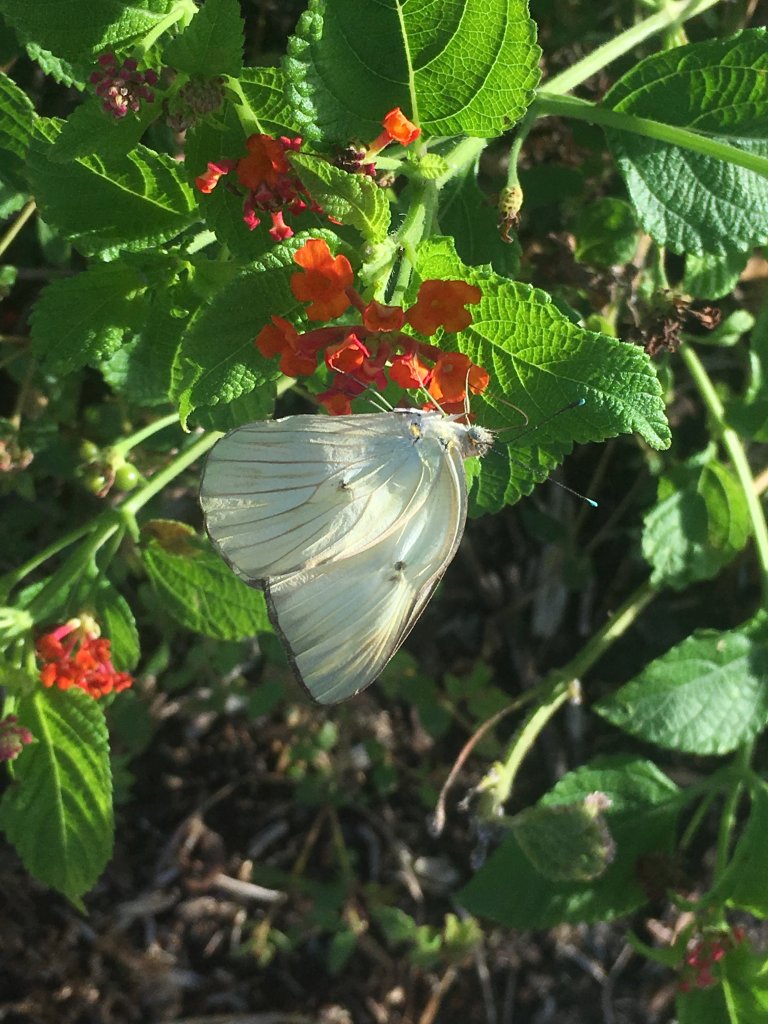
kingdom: Animalia
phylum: Arthropoda
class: Insecta
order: Lepidoptera
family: Pieridae
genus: Ascia
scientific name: Ascia monuste
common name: Great Southern White
